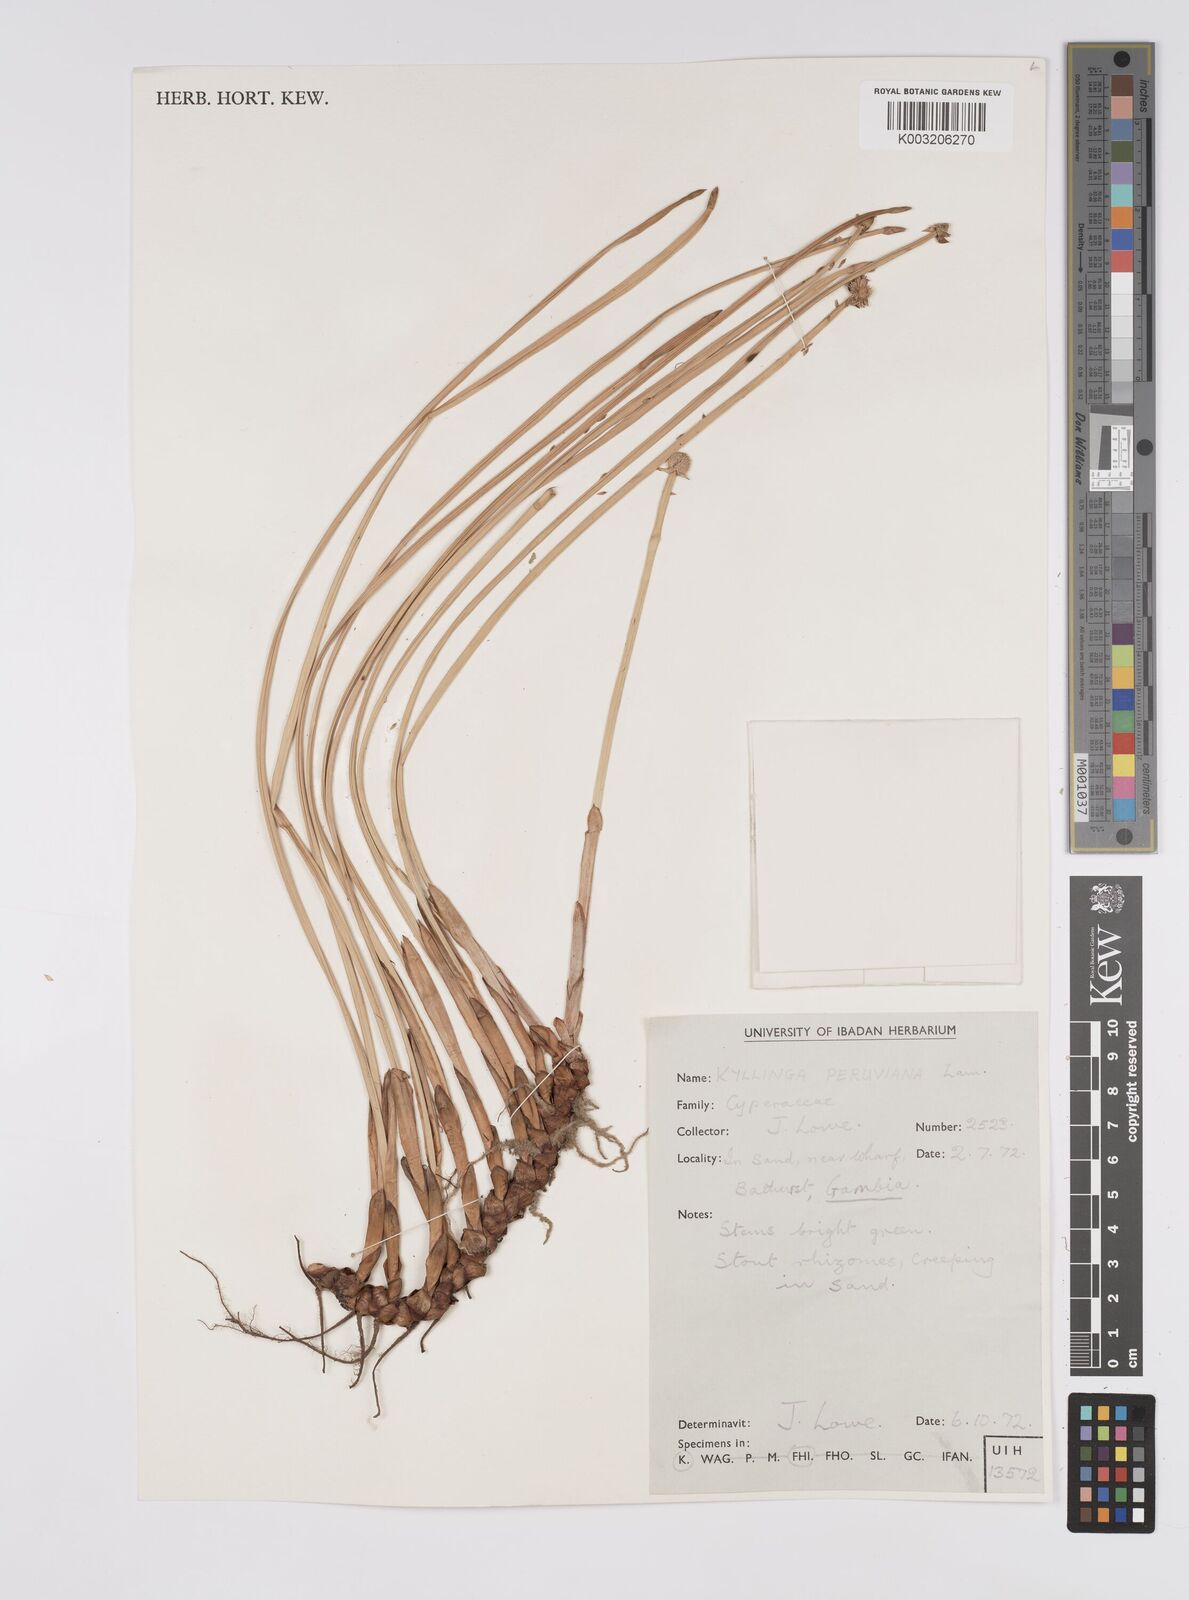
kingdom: Plantae
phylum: Tracheophyta
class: Liliopsida
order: Poales
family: Cyperaceae
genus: Cyperus
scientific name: Cyperus obtusatus
